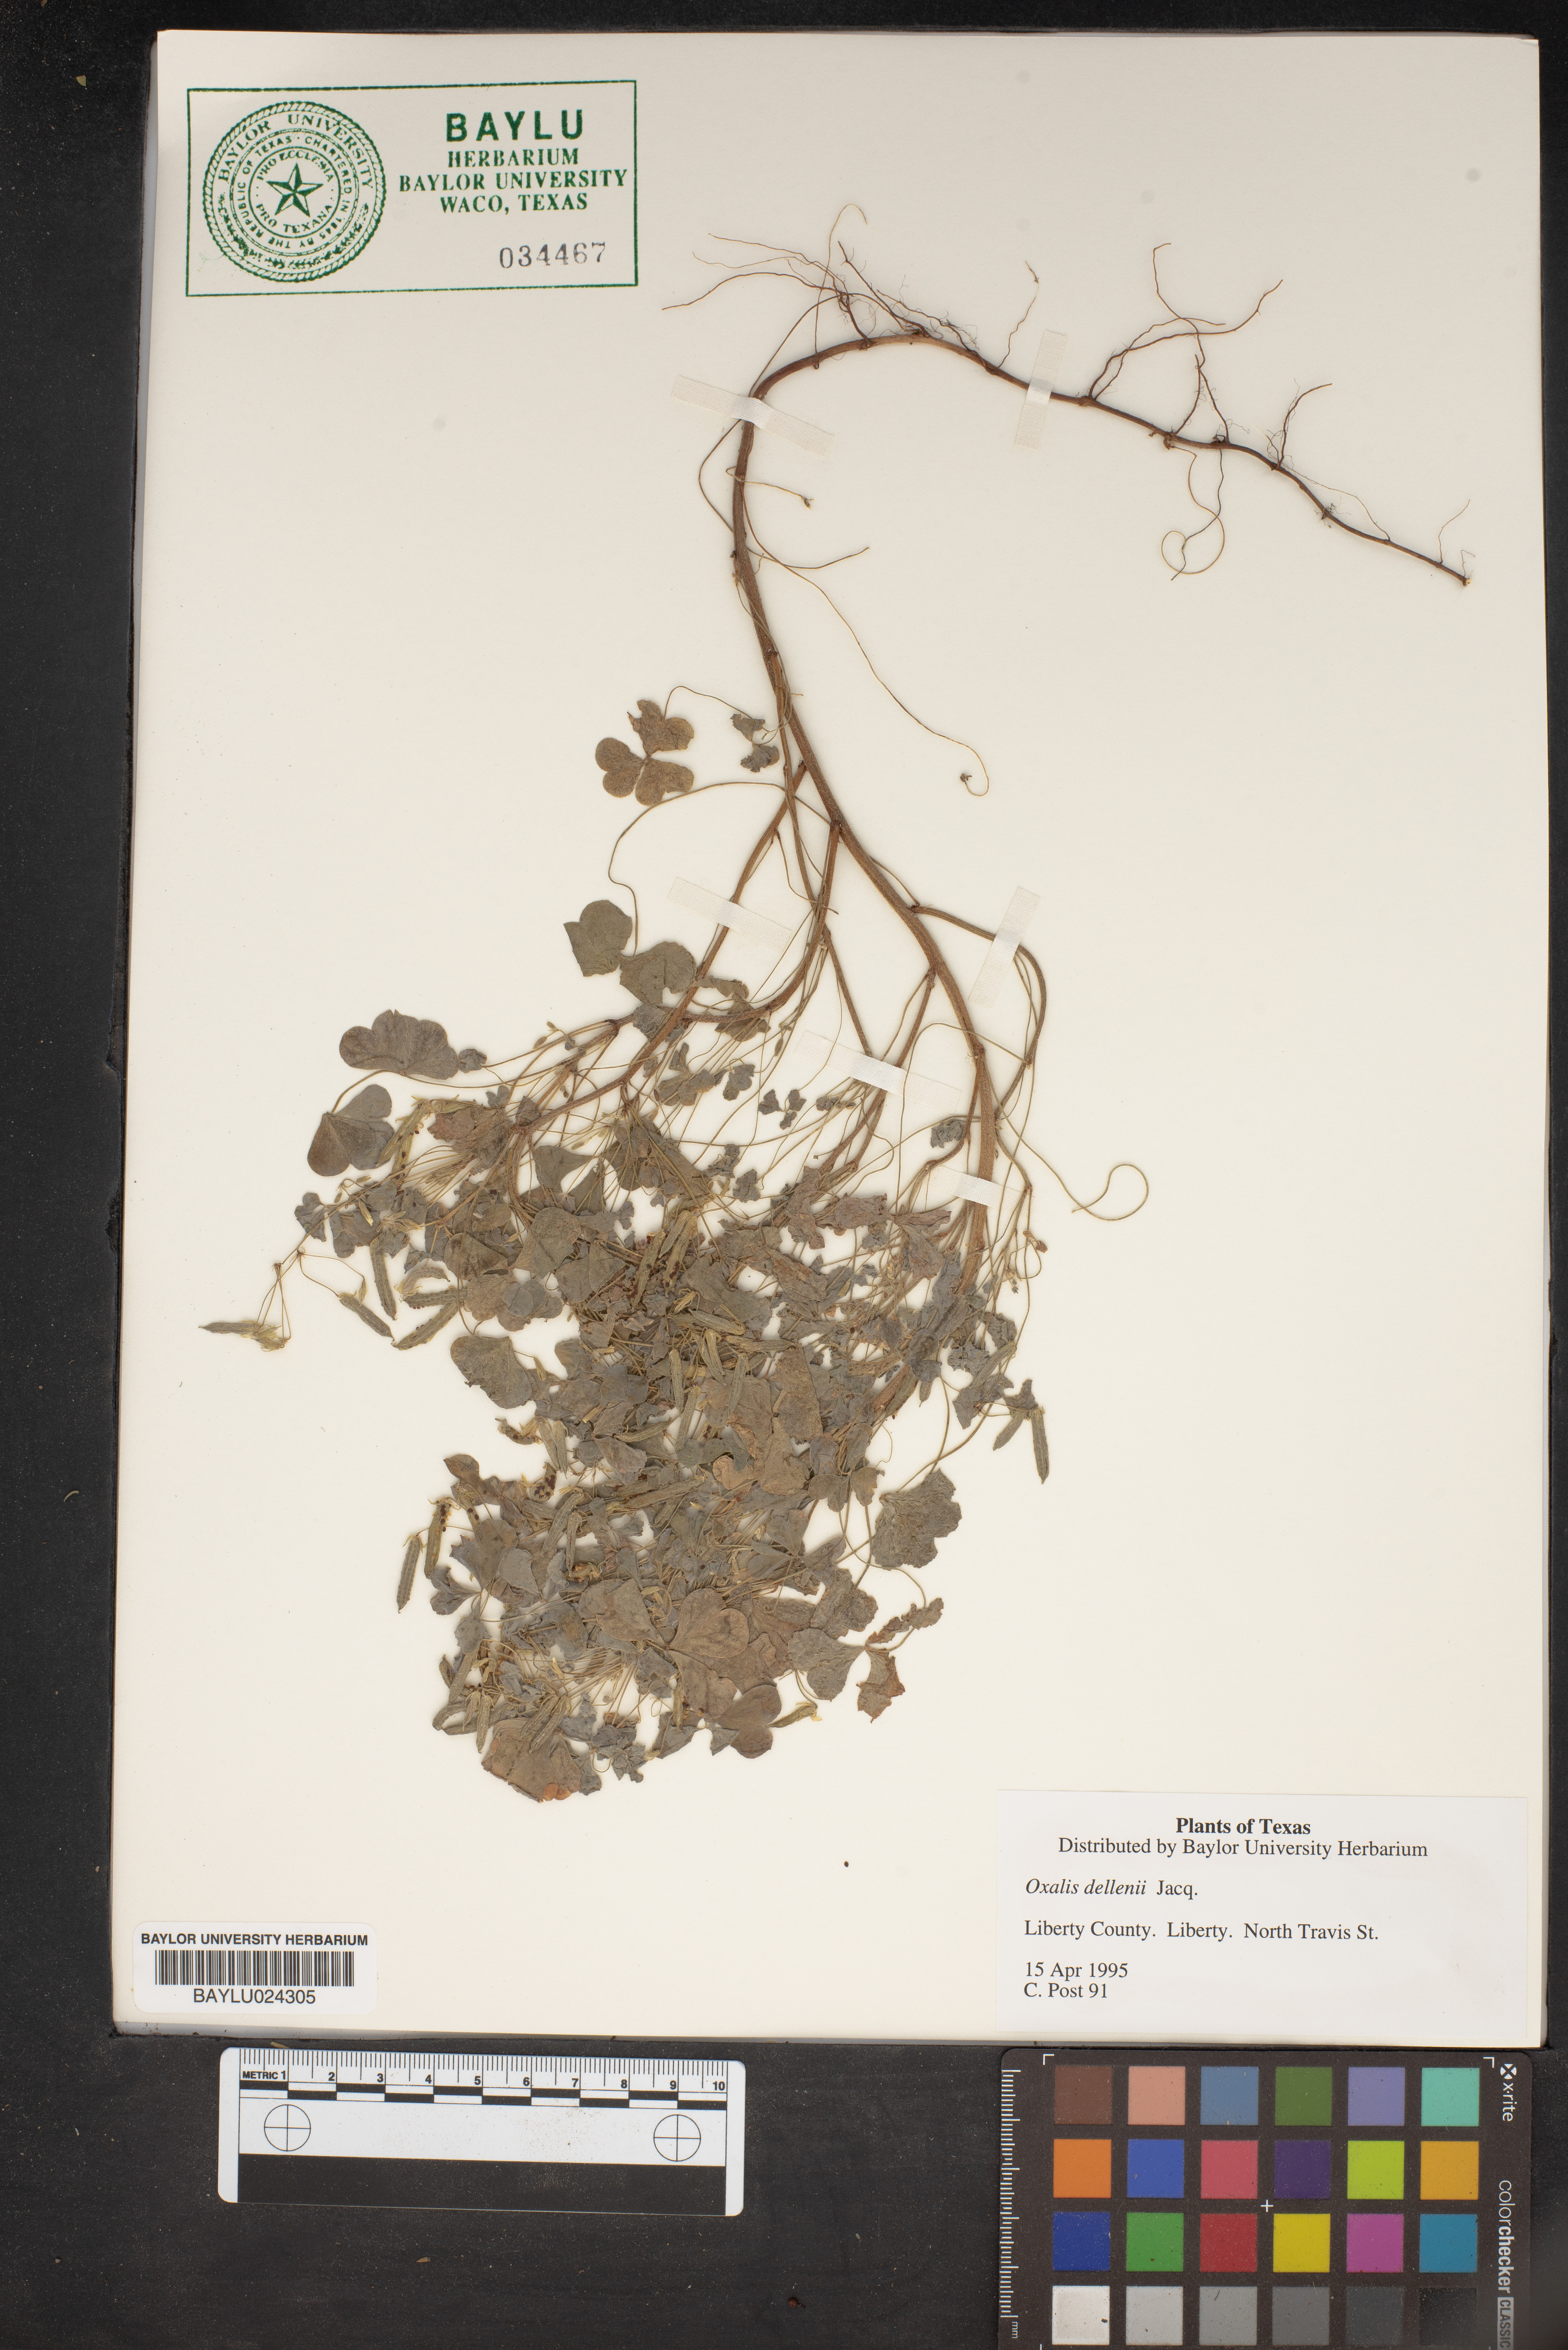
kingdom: Plantae
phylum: Tracheophyta
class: Magnoliopsida
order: Oxalidales
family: Oxalidaceae
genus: Oxalis
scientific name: Oxalis dillenii
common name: Sussex yellow-sorrel
